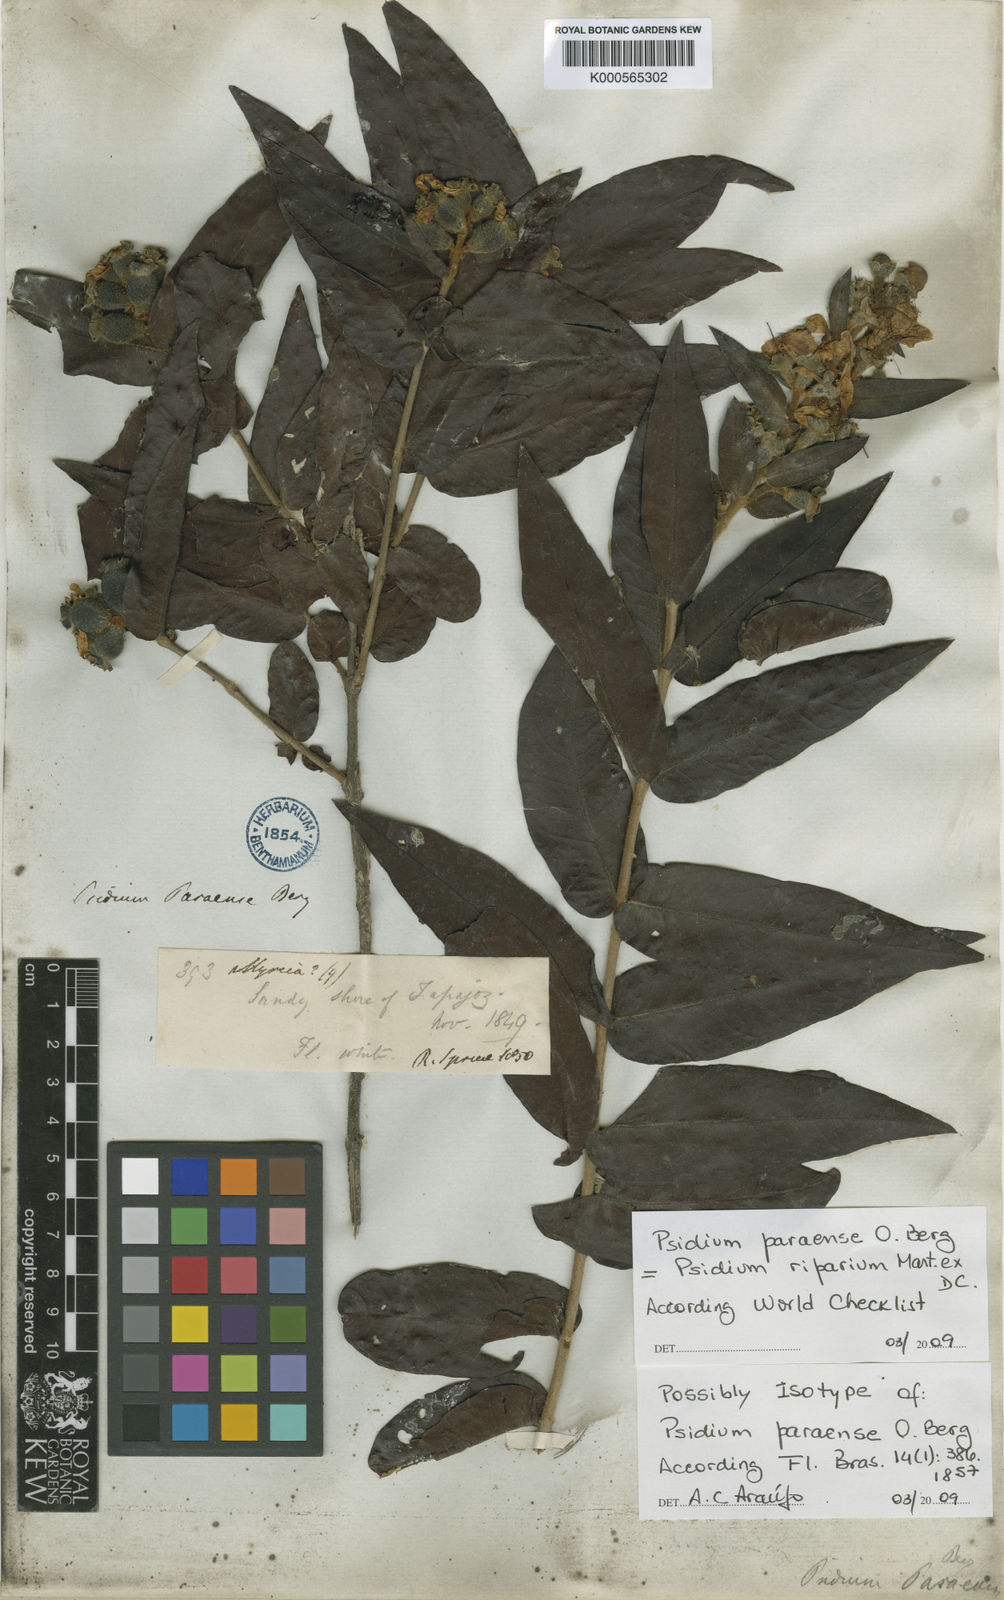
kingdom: Plantae
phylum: Tracheophyta
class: Magnoliopsida
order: Myrtales
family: Myrtaceae
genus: Psidium
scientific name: Psidium riparium
